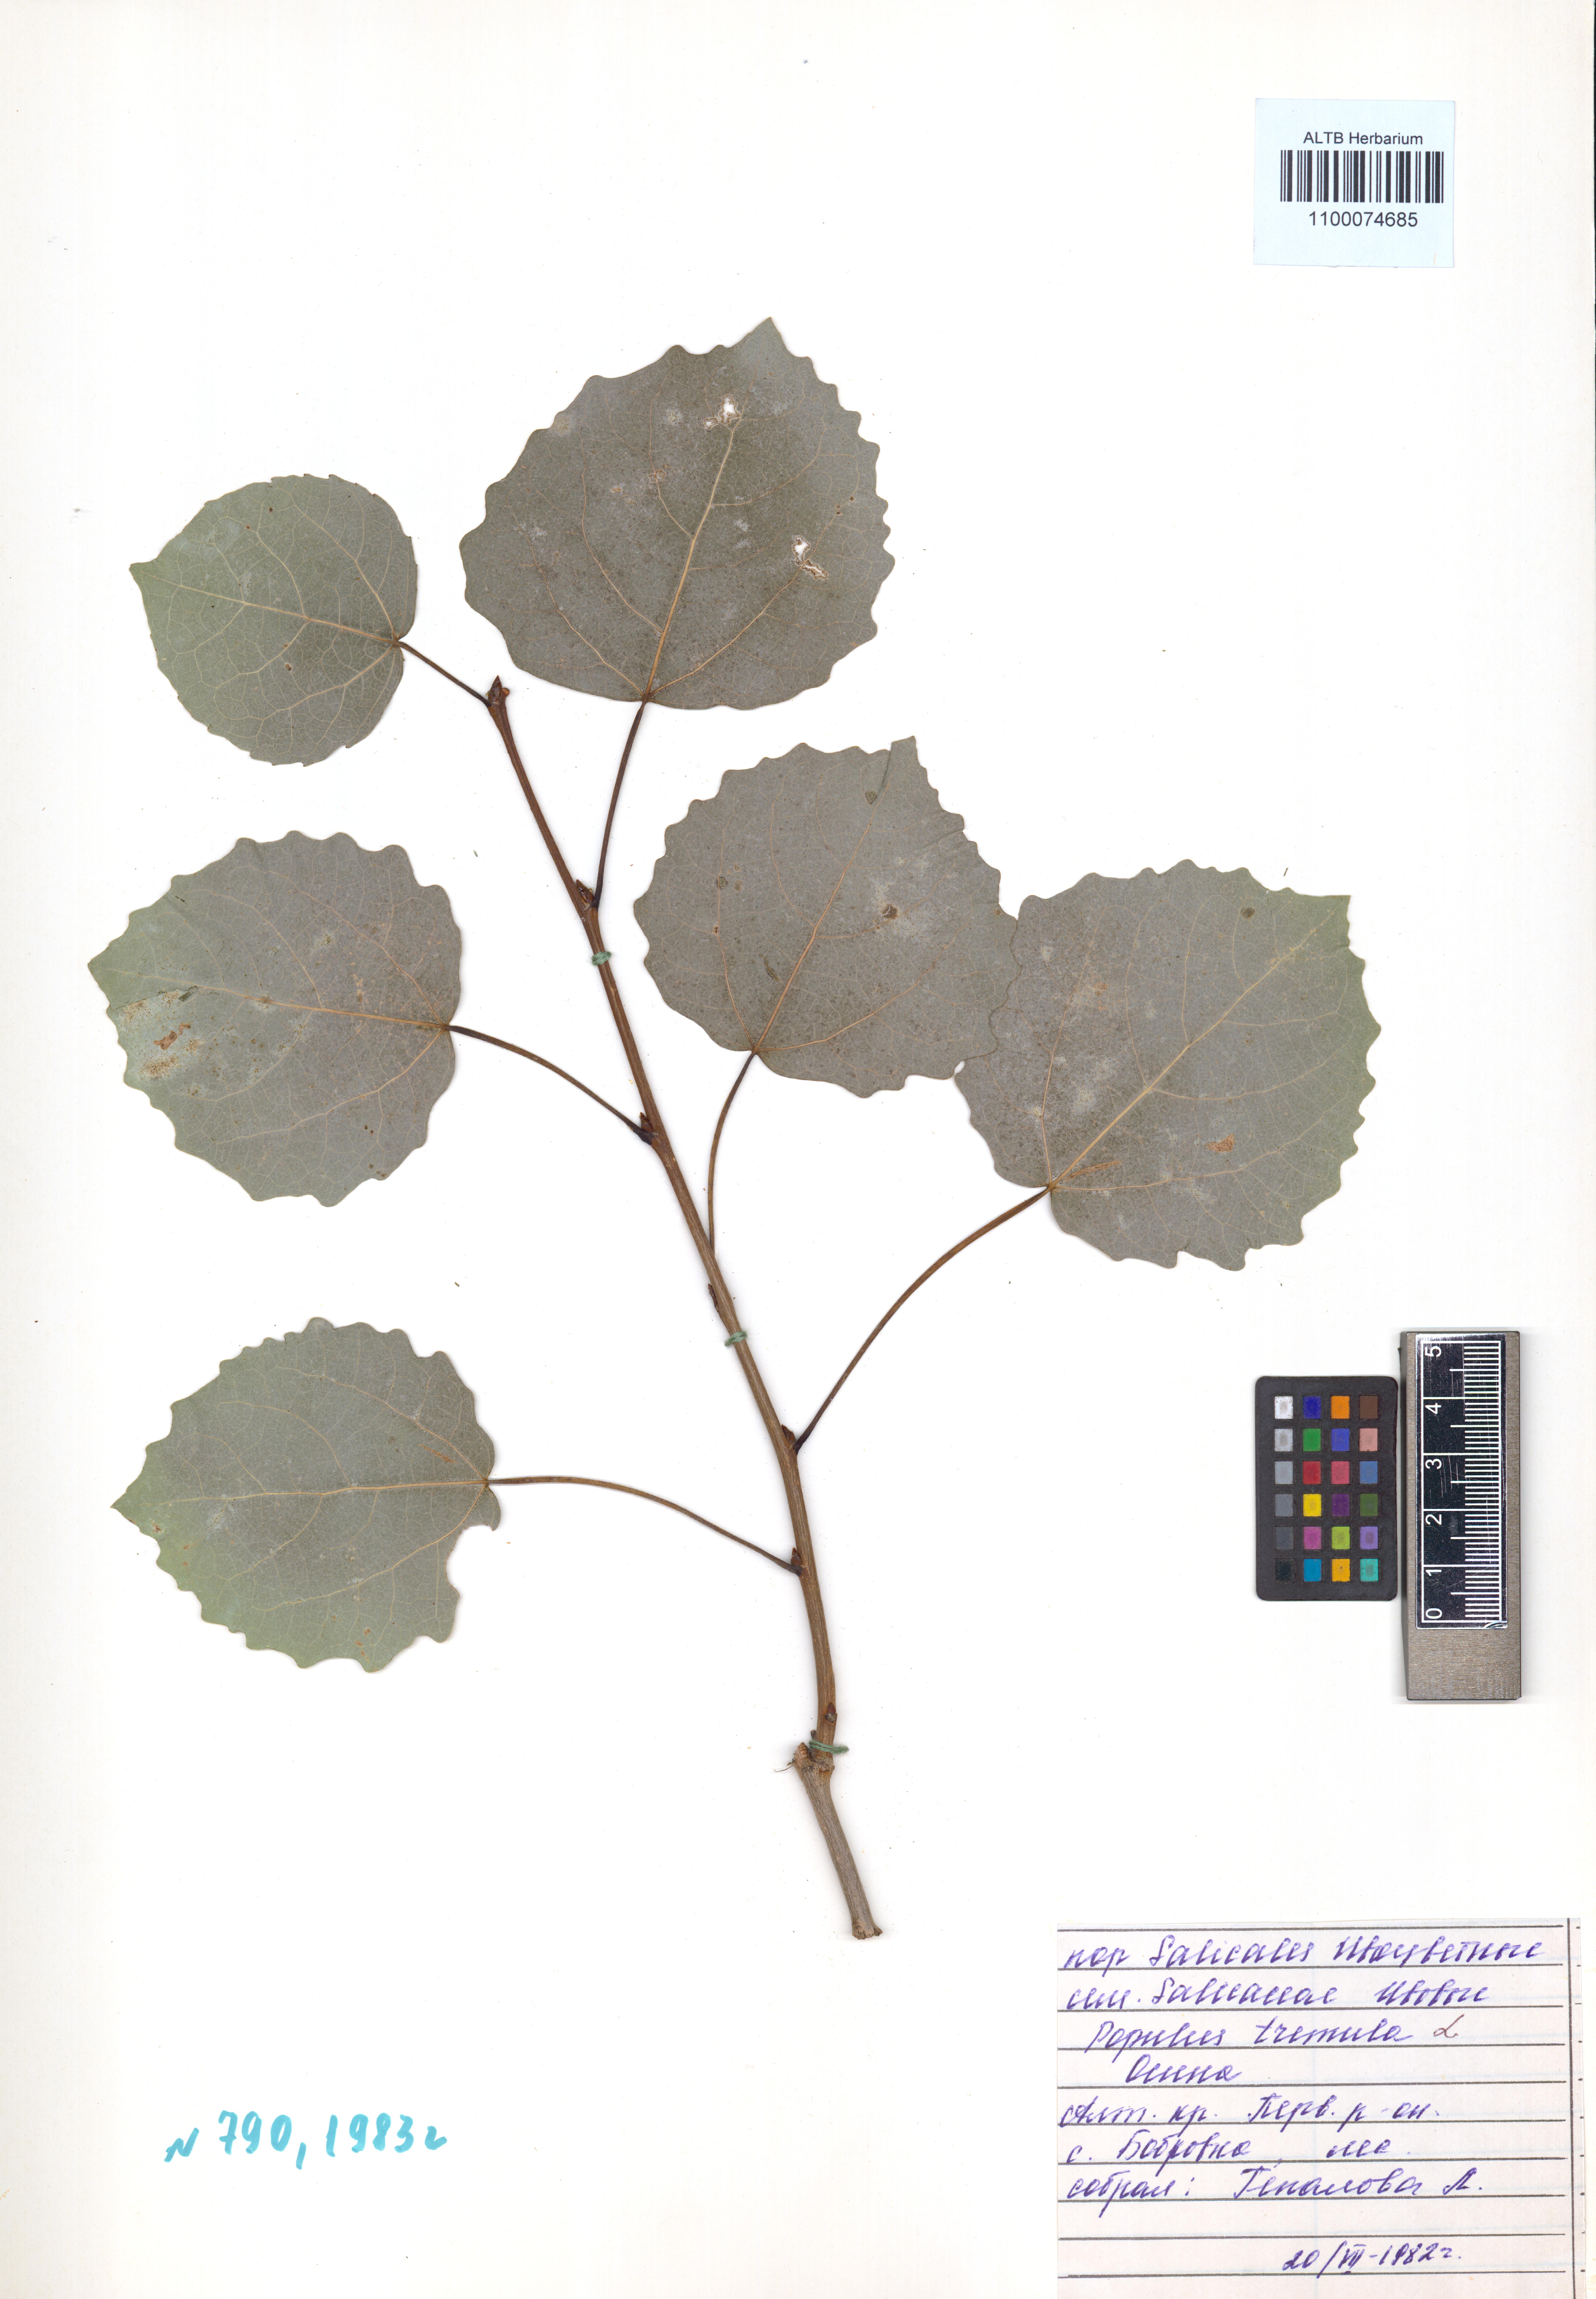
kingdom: Plantae
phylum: Tracheophyta
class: Magnoliopsida
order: Malpighiales
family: Salicaceae
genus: Populus
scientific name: Populus tremula
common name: European aspen
